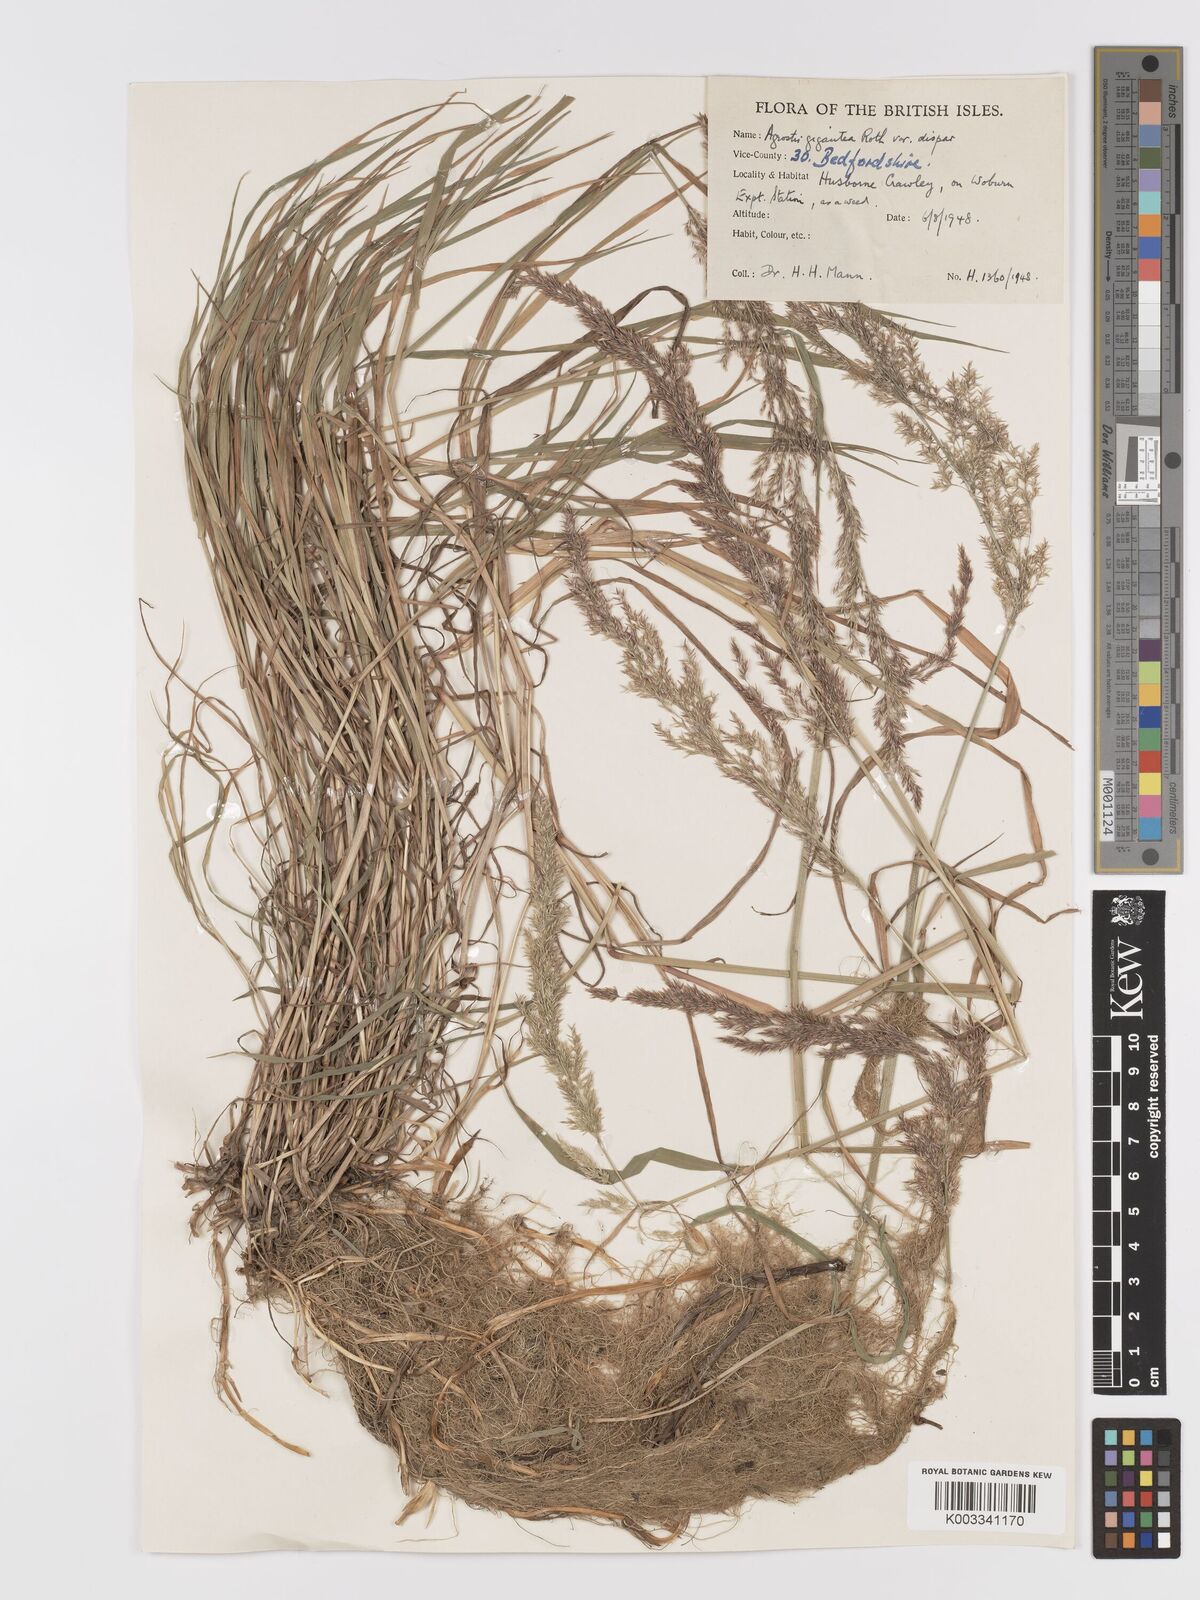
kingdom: Plantae
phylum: Tracheophyta
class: Liliopsida
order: Poales
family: Poaceae
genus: Agrostis
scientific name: Agrostis gigantea
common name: Black bent
